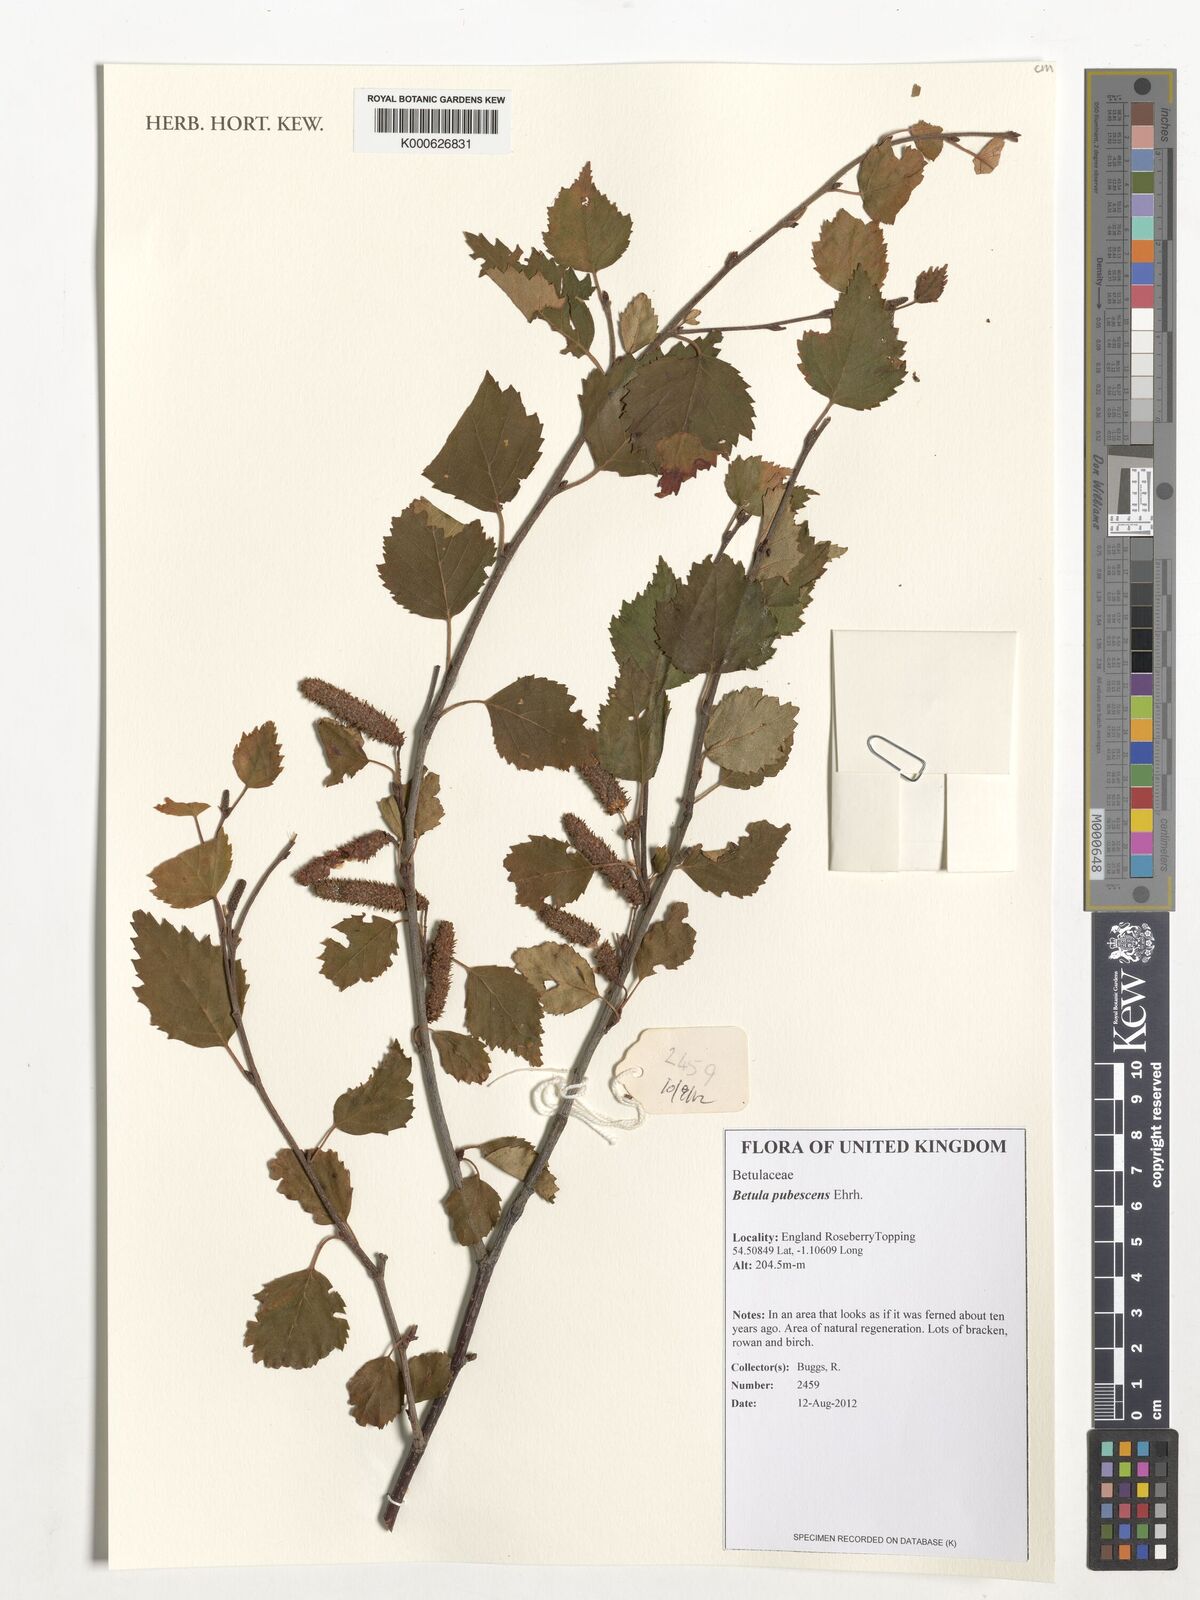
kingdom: Plantae
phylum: Tracheophyta
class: Magnoliopsida
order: Fagales
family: Betulaceae
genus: Betula
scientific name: Betula pubescens
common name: Downy birch
